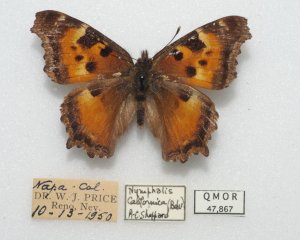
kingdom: Animalia
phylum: Arthropoda
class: Insecta
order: Lepidoptera
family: Nymphalidae
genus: Nymphalis
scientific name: Nymphalis californica
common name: California Tortoiseshell
